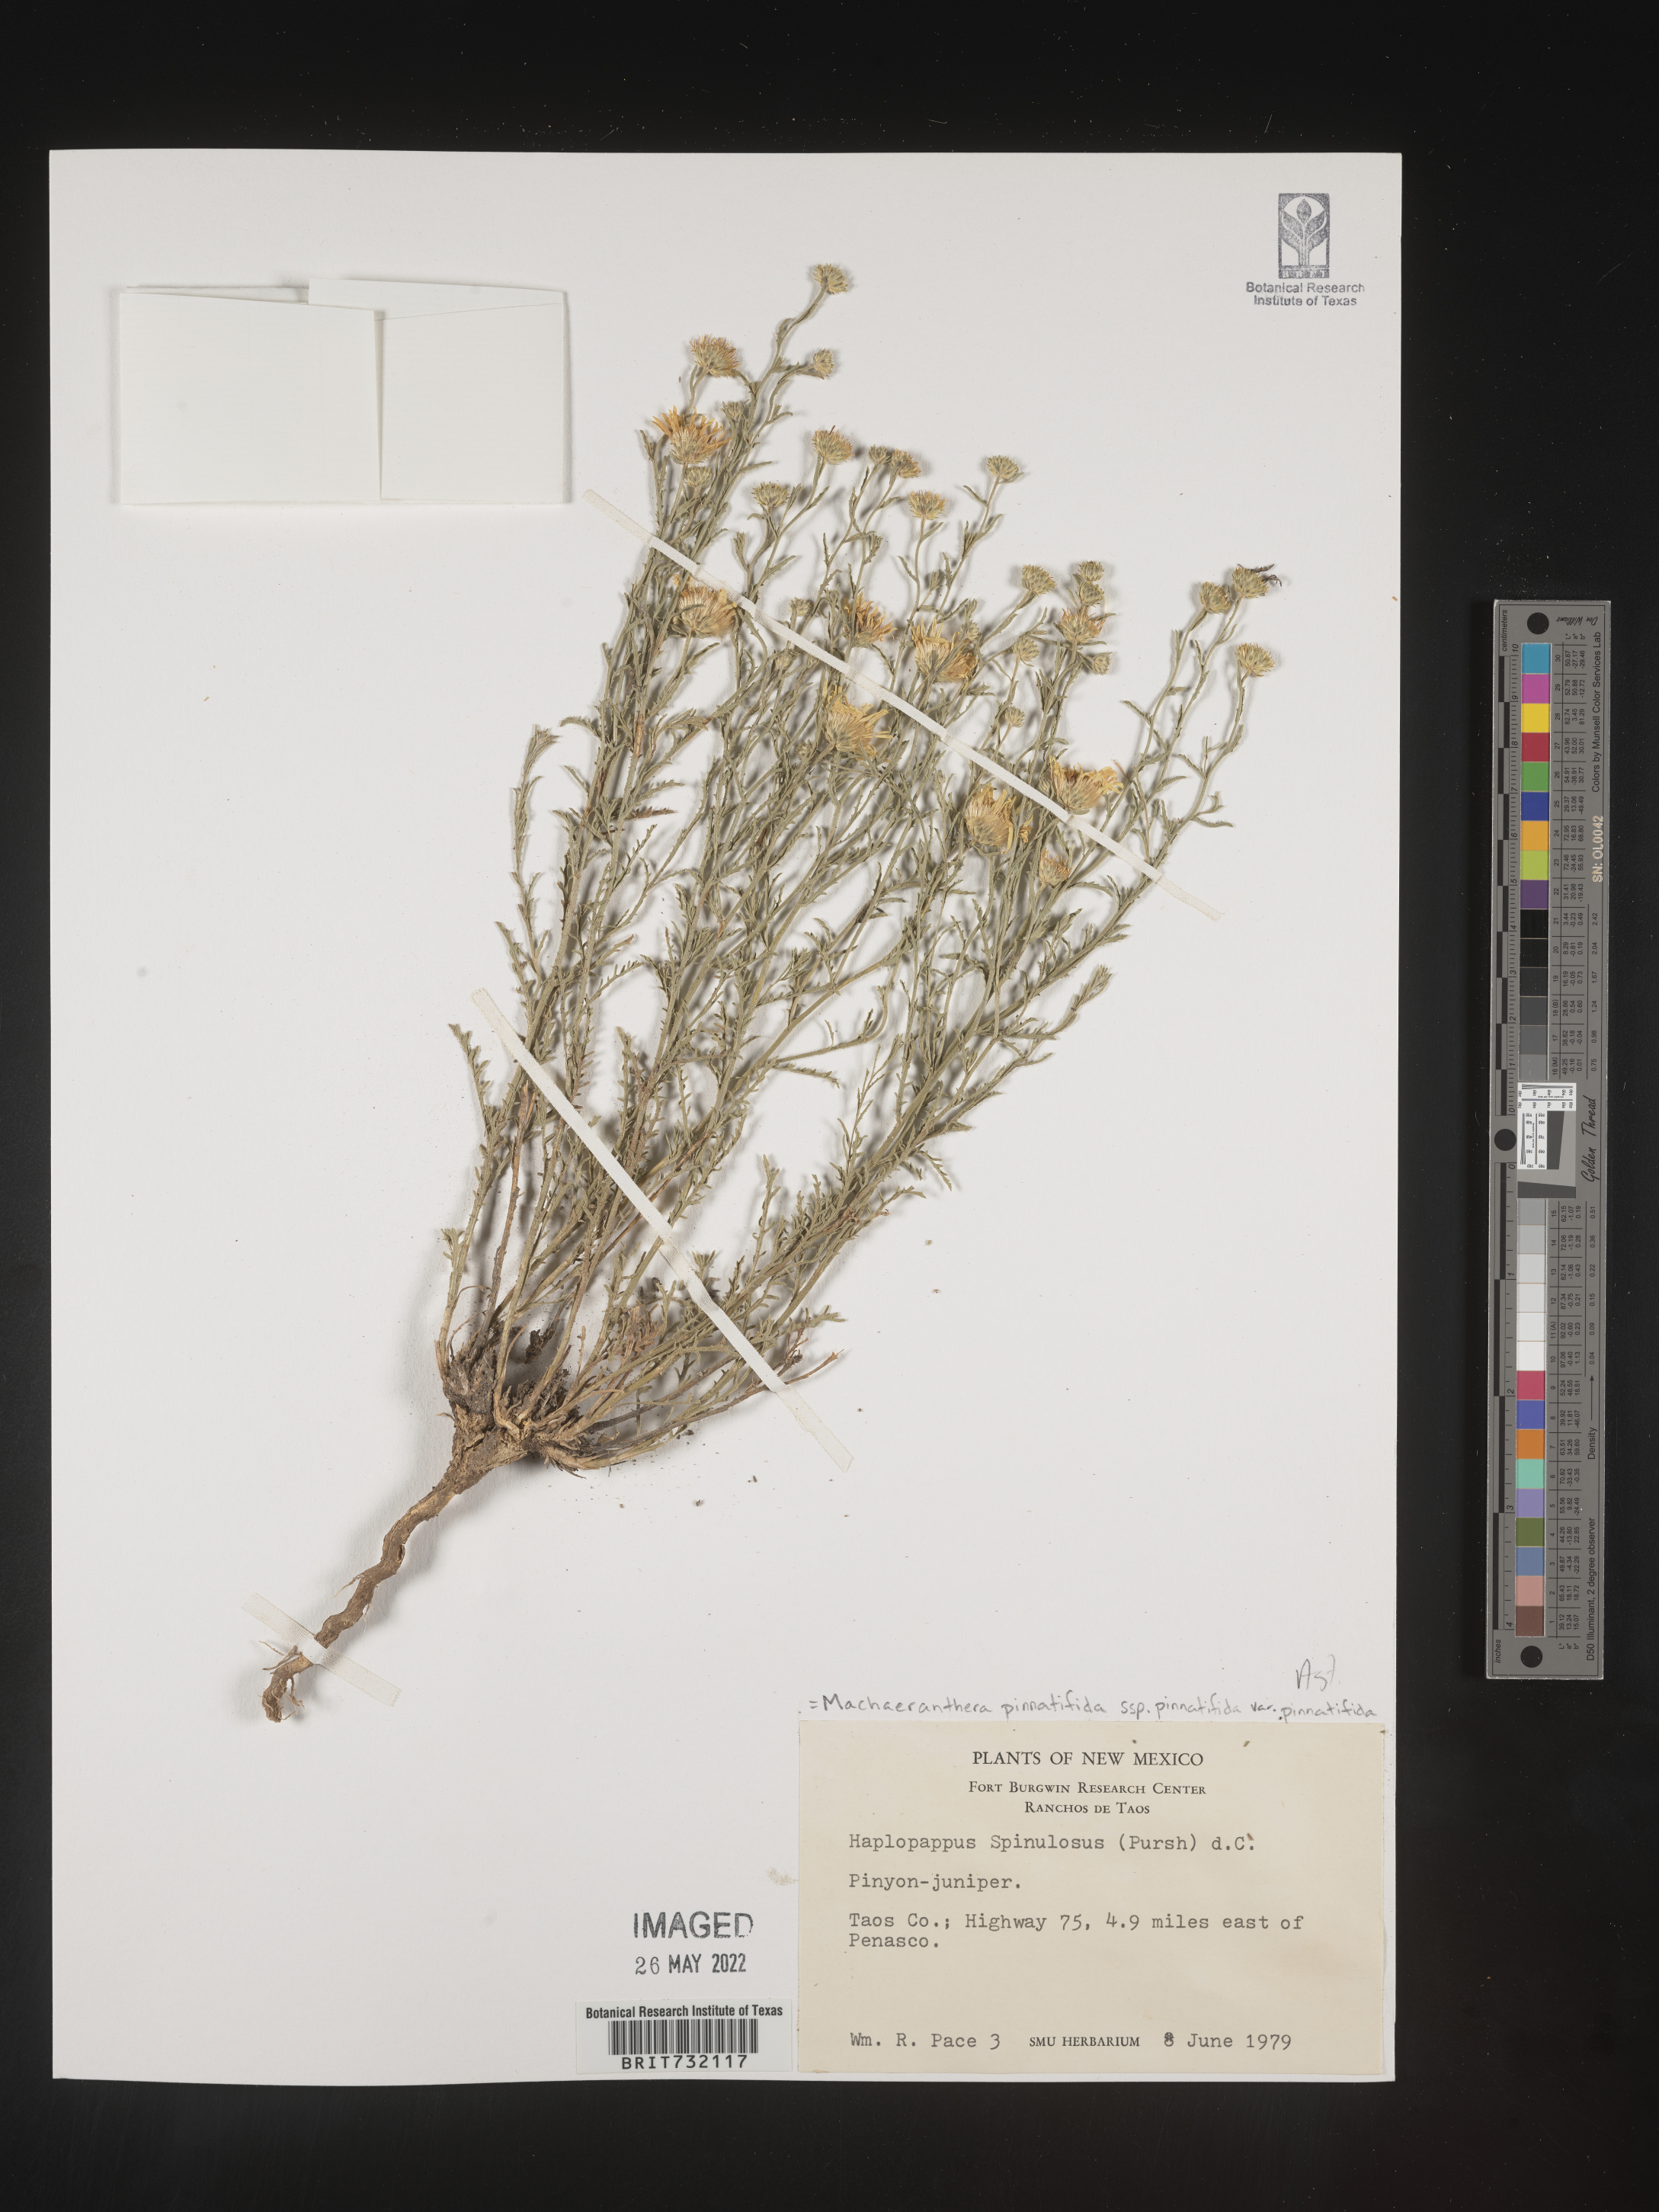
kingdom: Plantae
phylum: Tracheophyta
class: Magnoliopsida
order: Asterales
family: Asteraceae
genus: Xanthisma
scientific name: Xanthisma spinulosum
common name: Spiny goldenweed
